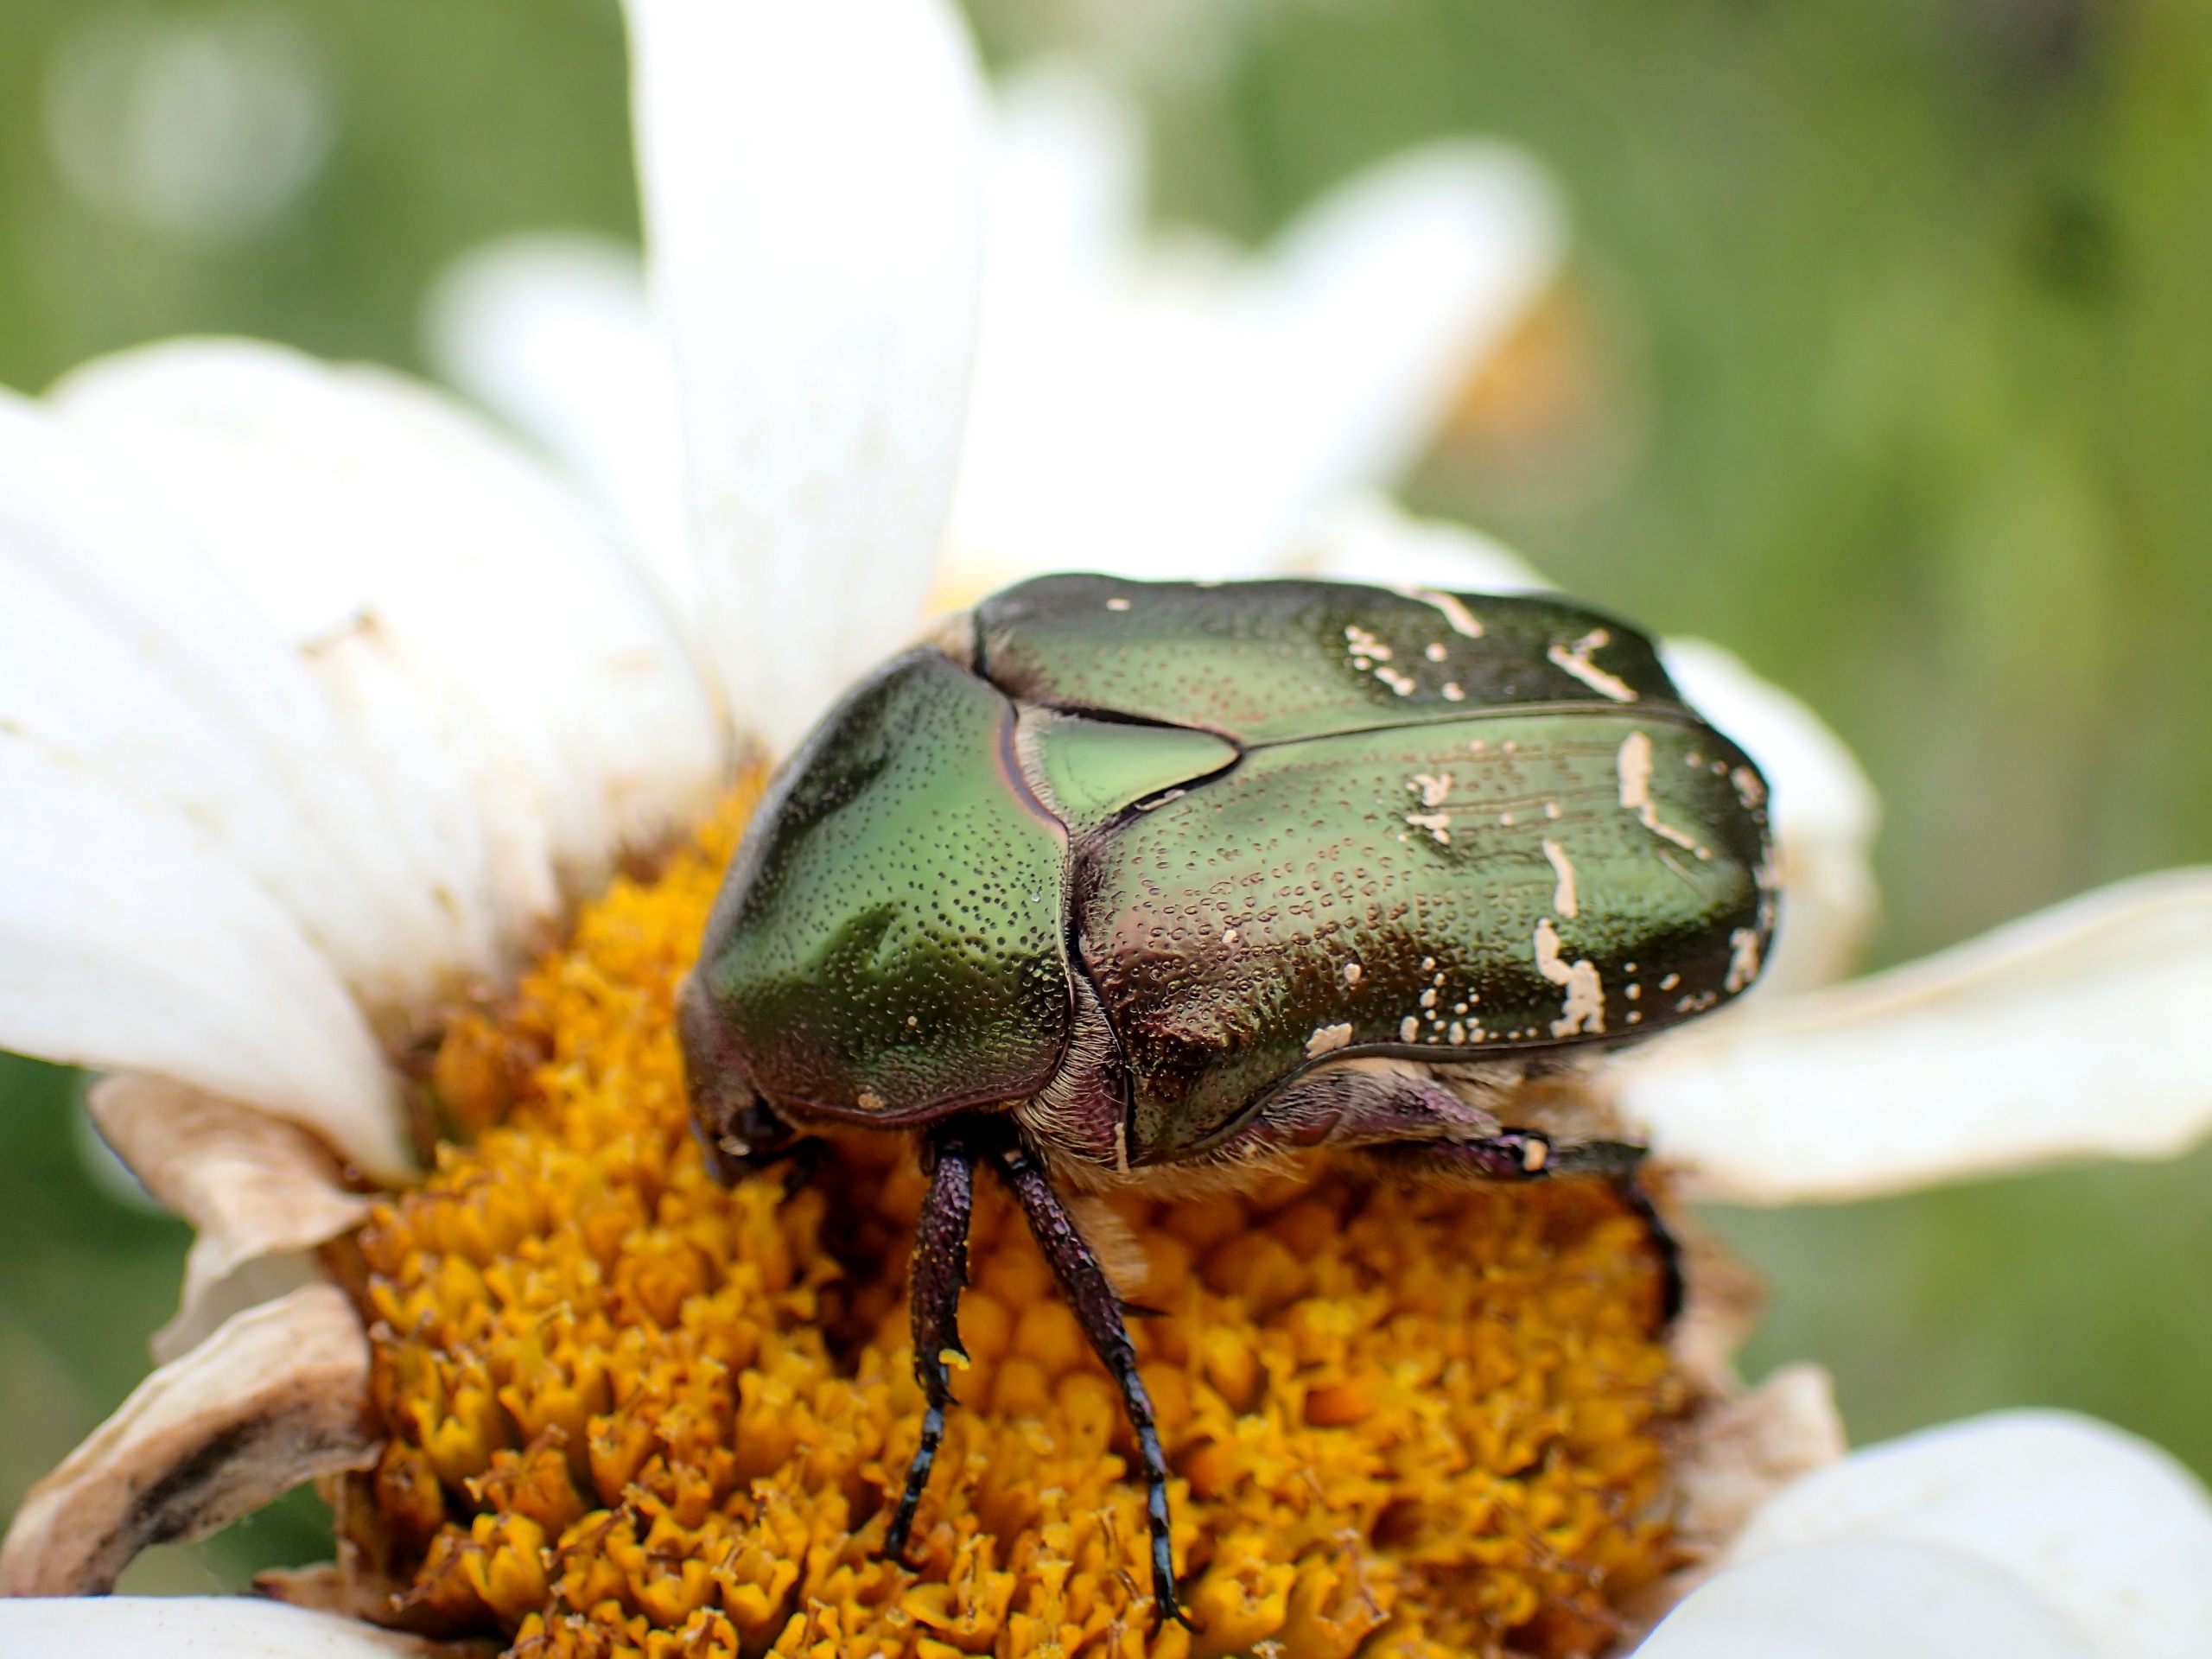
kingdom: Animalia
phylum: Arthropoda
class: Insecta
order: Coleoptera
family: Scarabaeidae
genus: Protaetia
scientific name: Protaetia cuprea
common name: Kobberguldbasse
